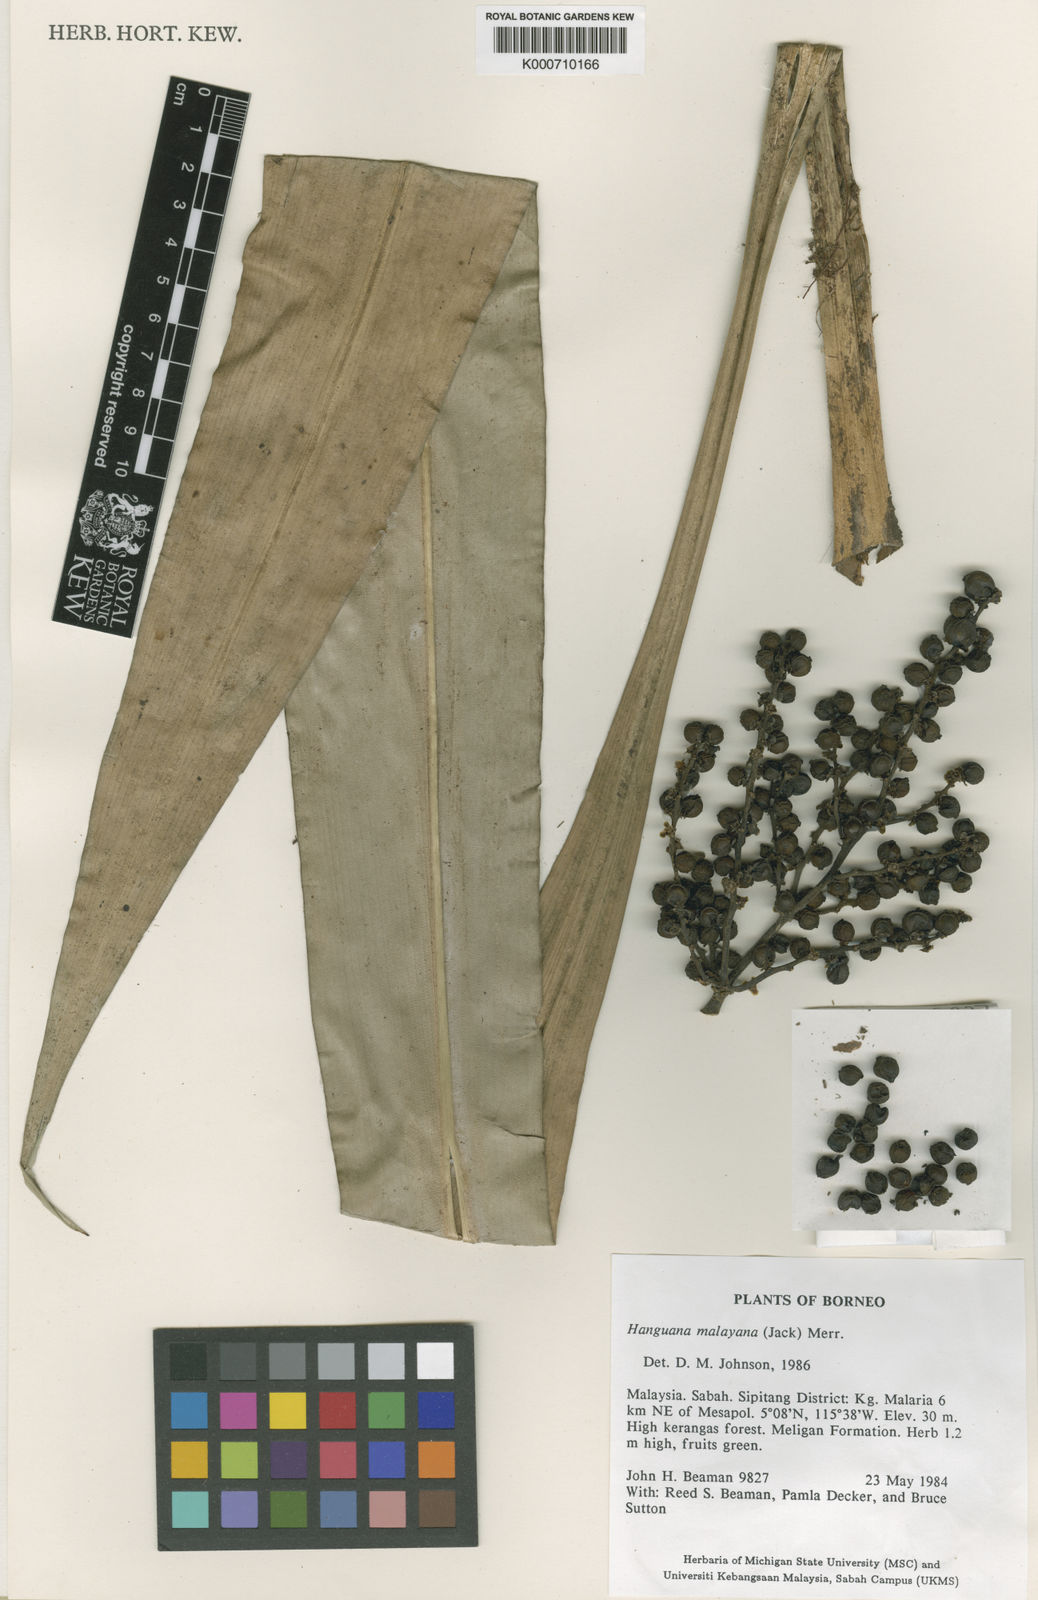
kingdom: Plantae
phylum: Tracheophyta
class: Liliopsida
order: Commelinales
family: Hanguanaceae
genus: Hanguana
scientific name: Hanguana malayana
